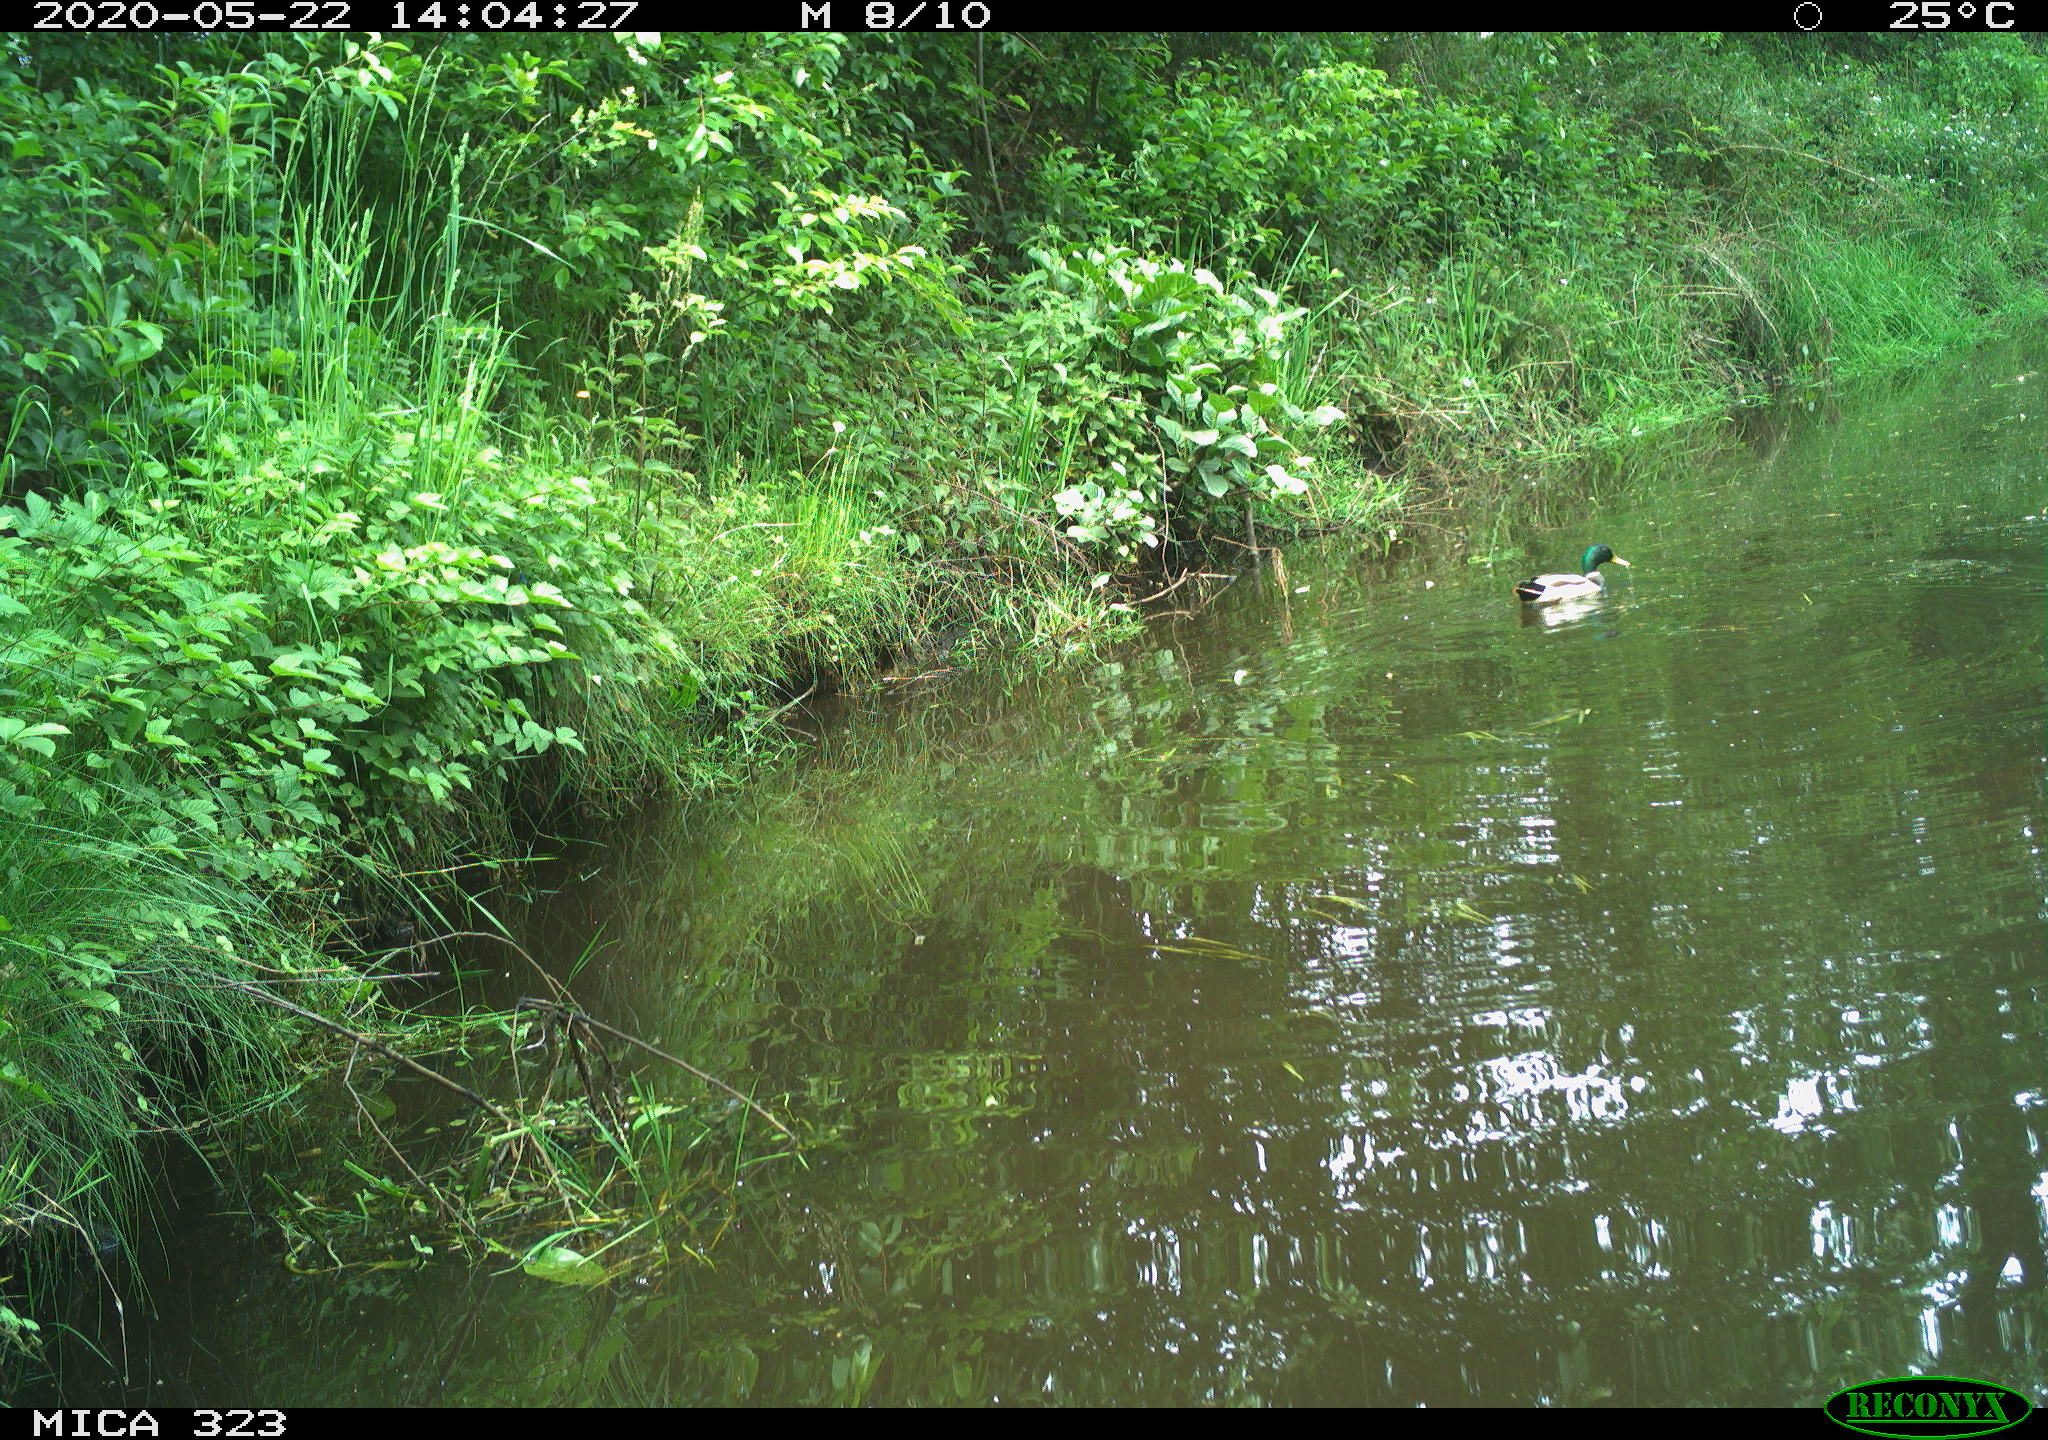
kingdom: Animalia
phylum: Chordata
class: Aves
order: Anseriformes
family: Anatidae
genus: Anas
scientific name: Anas platyrhynchos
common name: Mallard
